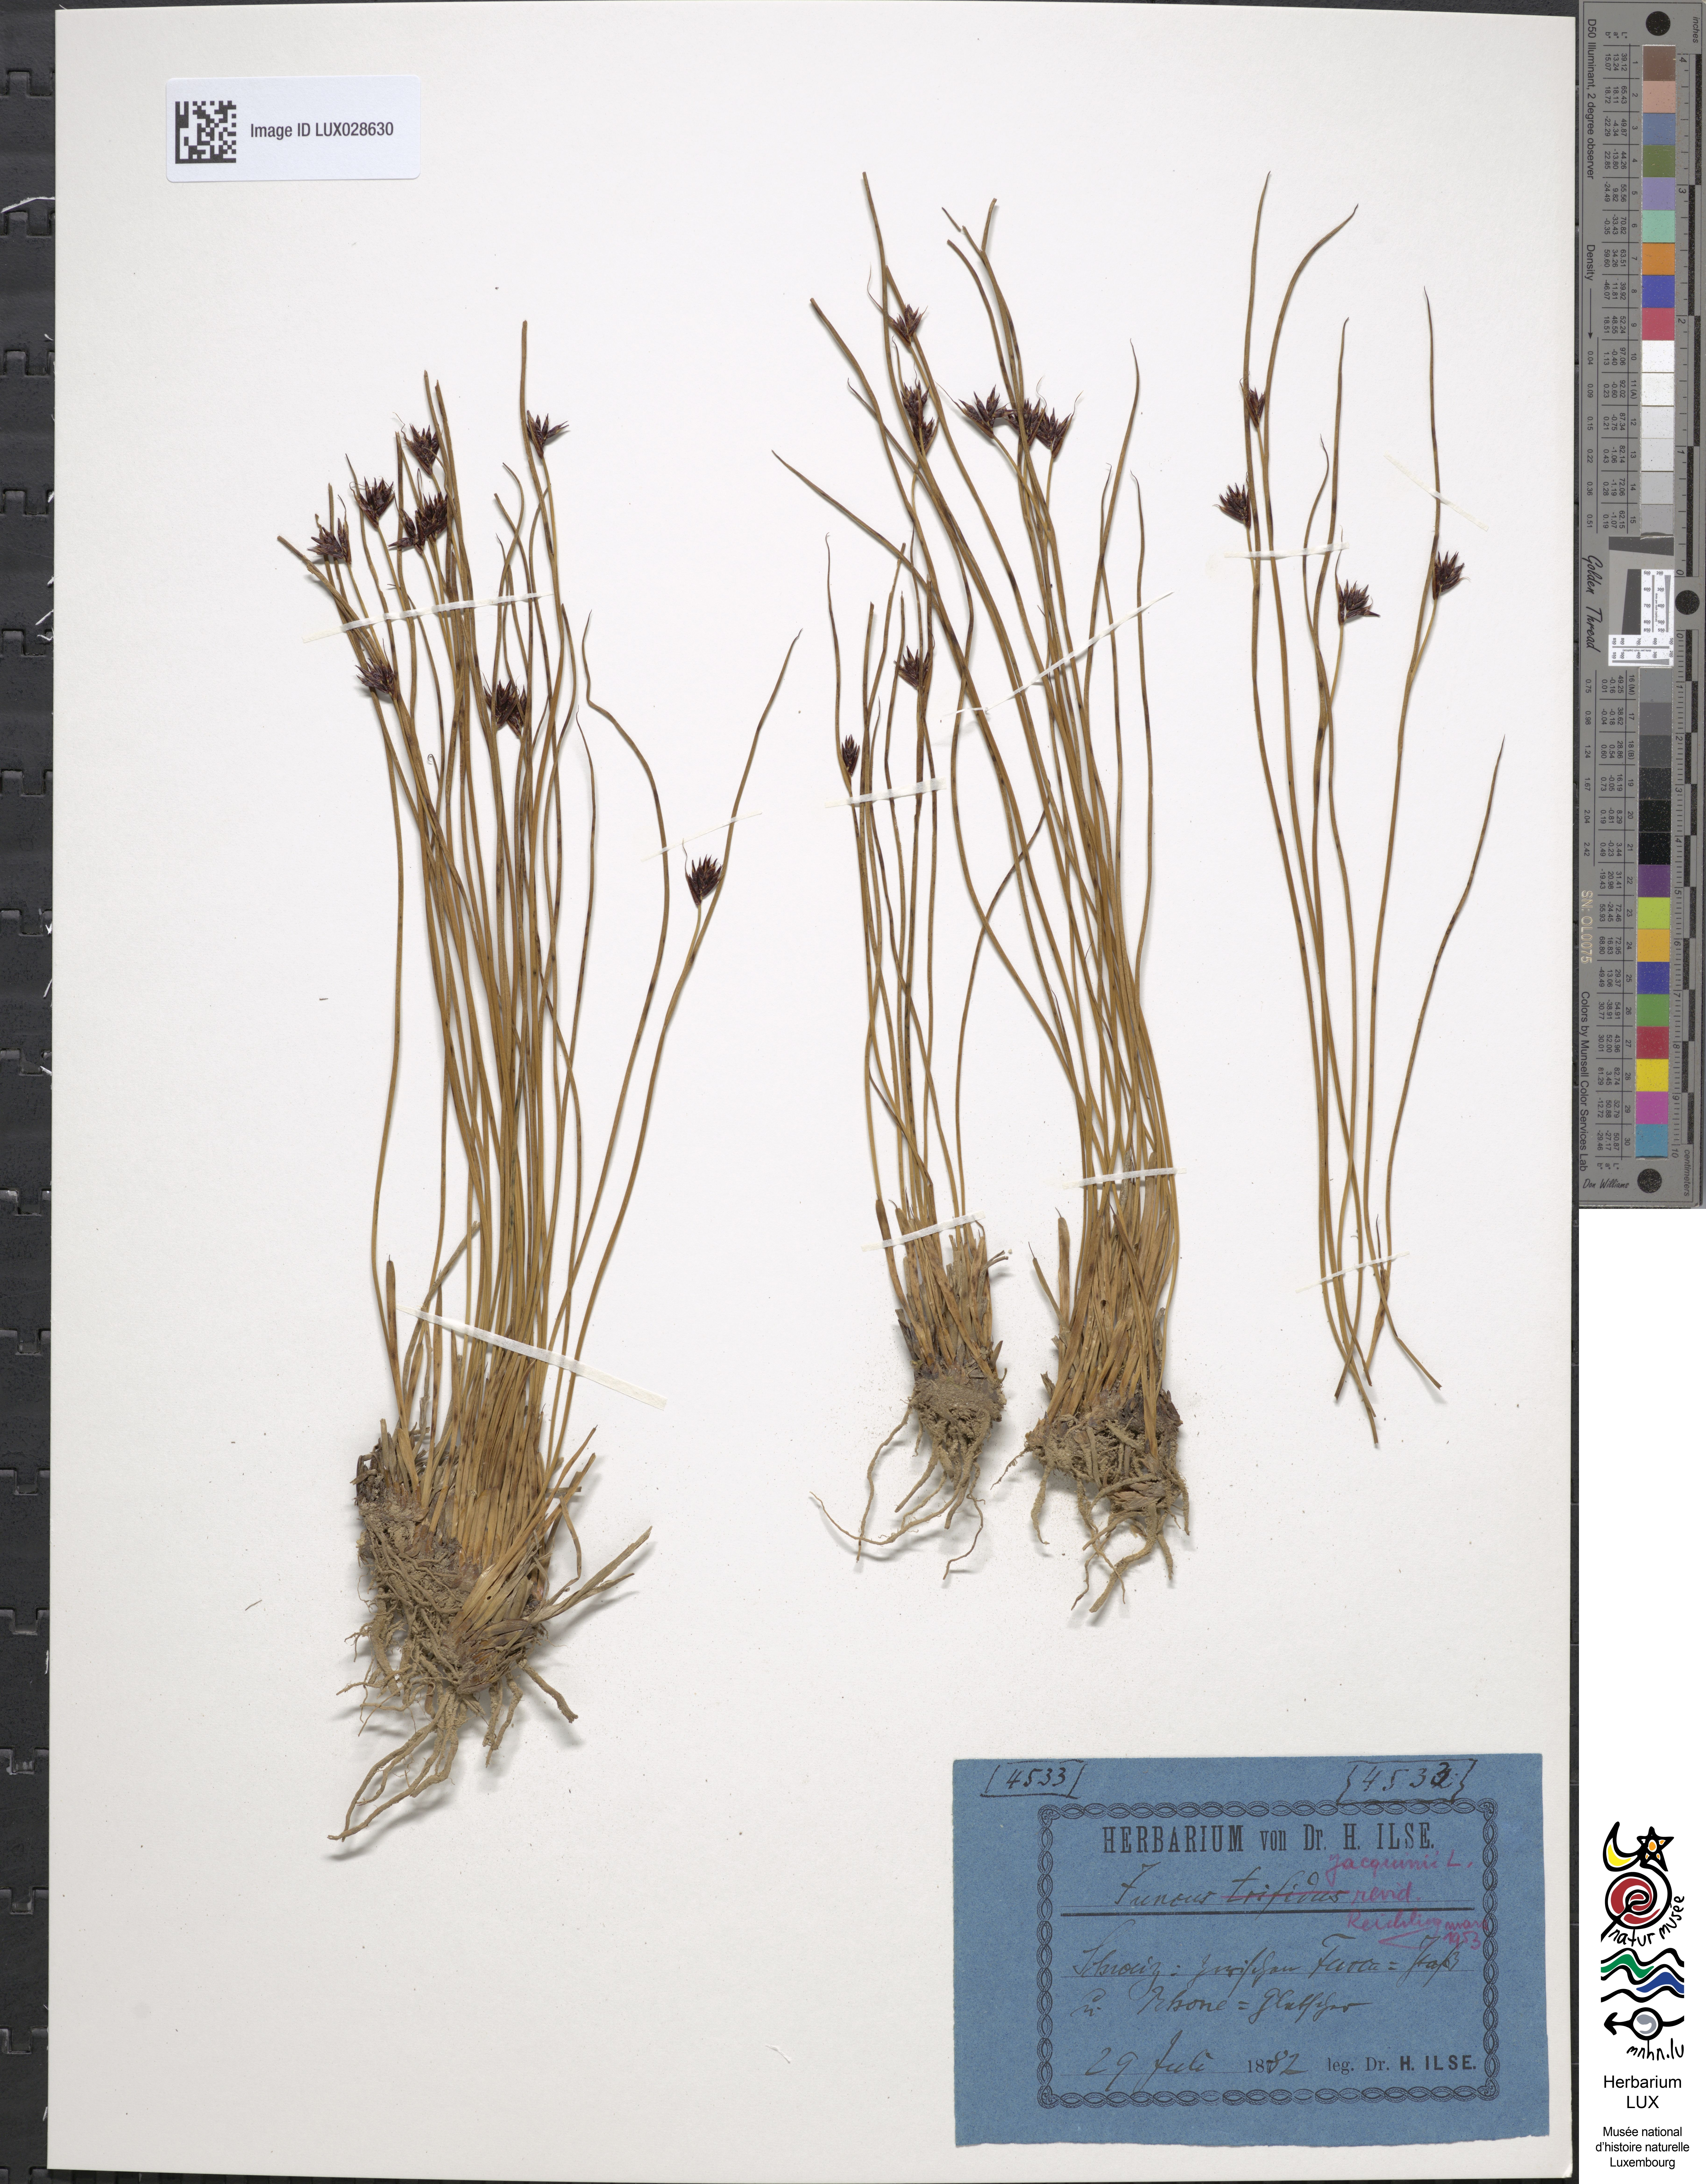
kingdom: Plantae
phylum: Tracheophyta
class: Liliopsida
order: Poales
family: Juncaceae
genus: Juncus
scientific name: Juncus jacquinii
